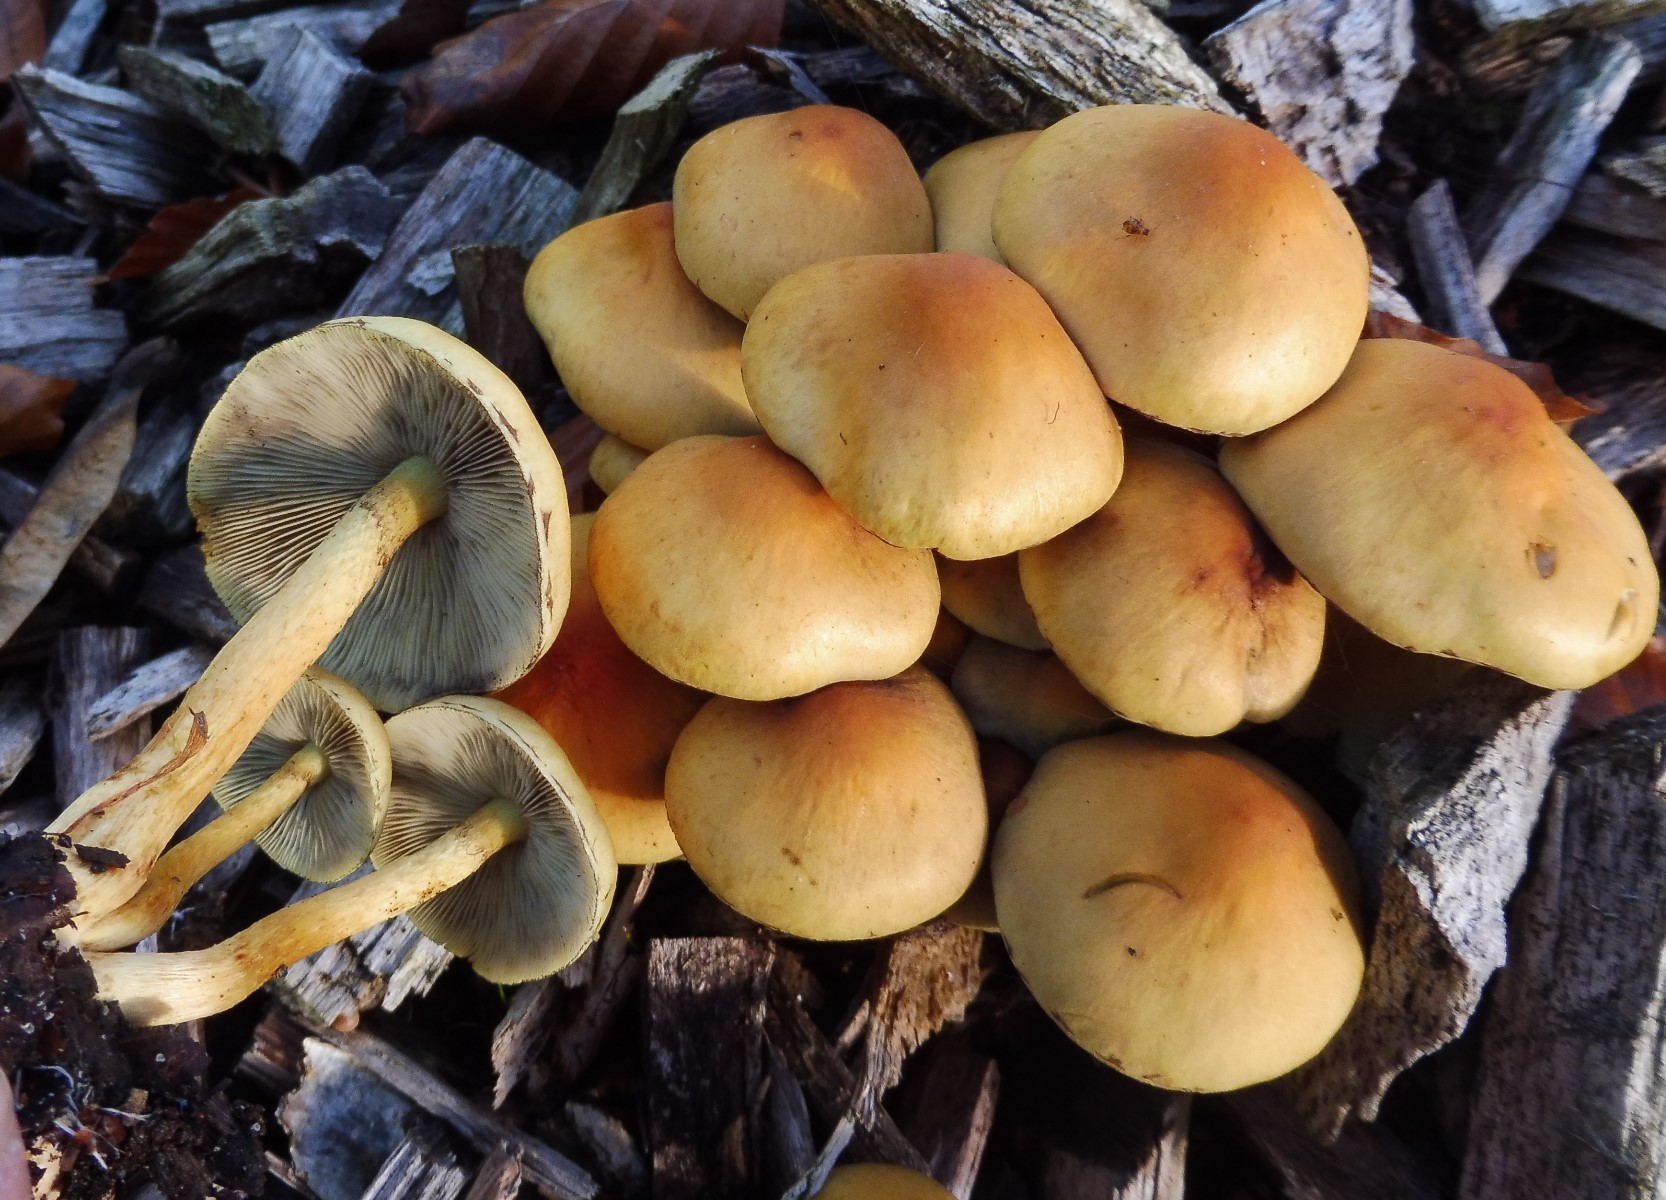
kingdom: Fungi
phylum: Basidiomycota
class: Agaricomycetes
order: Agaricales
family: Strophariaceae
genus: Hypholoma
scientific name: Hypholoma fasciculare
